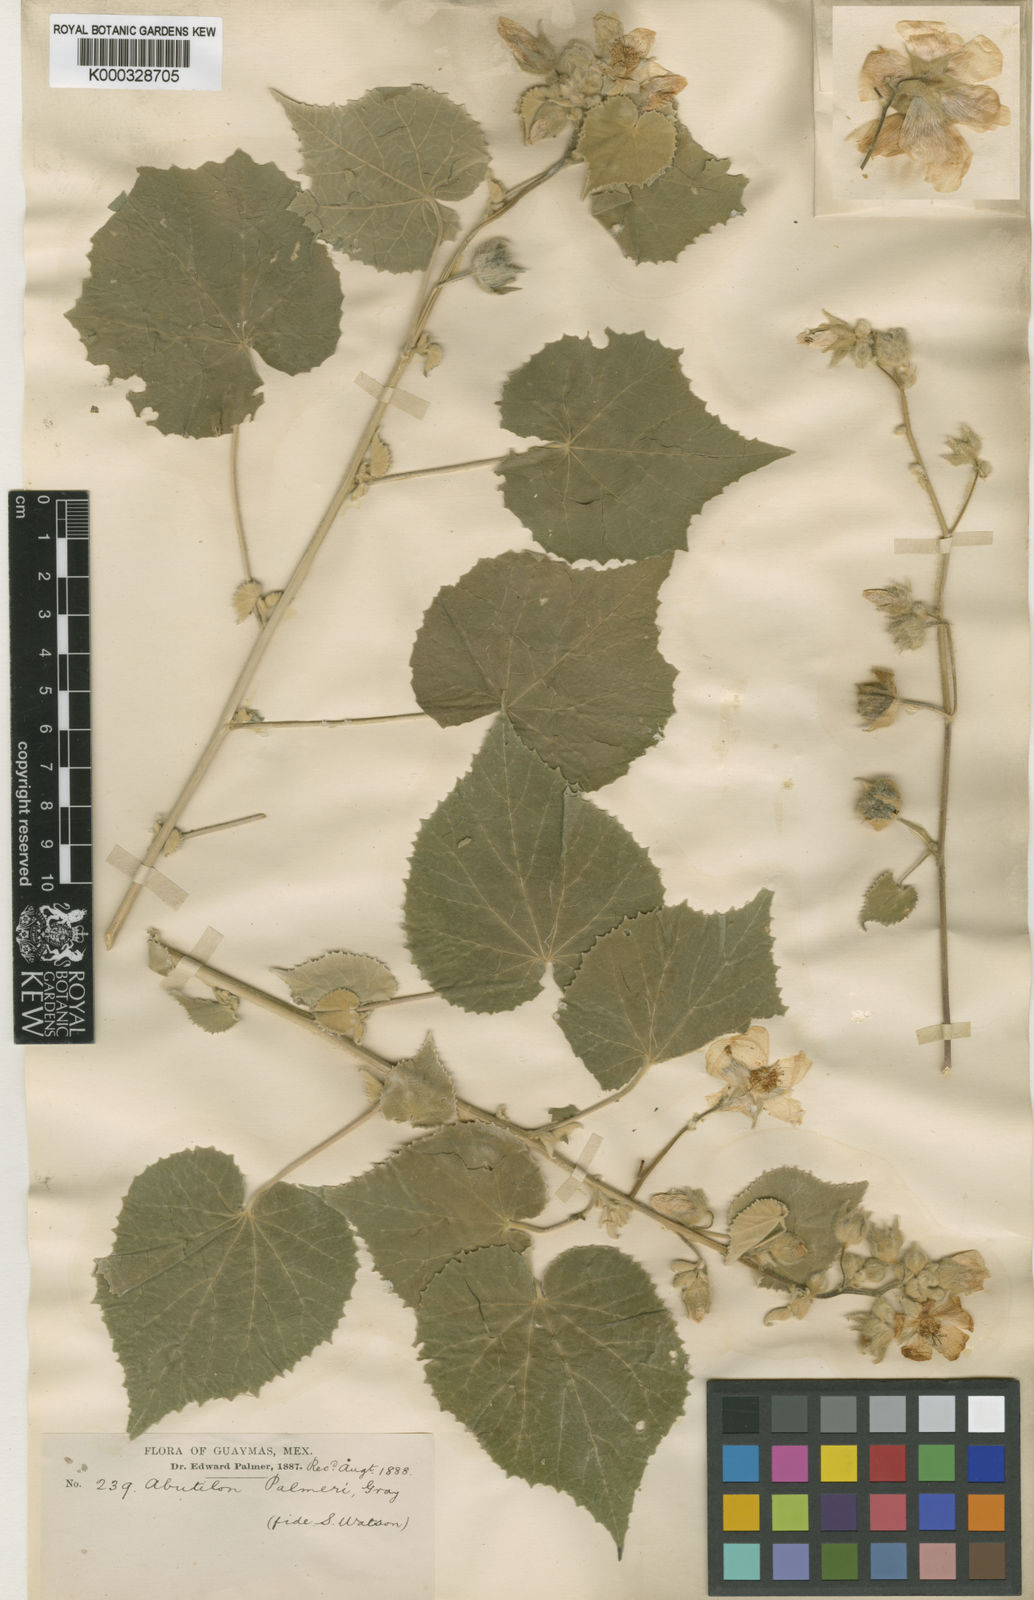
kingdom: Plantae
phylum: Tracheophyta
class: Magnoliopsida
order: Malvales
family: Malvaceae
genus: Abutilon
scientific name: Abutilon palmeri
